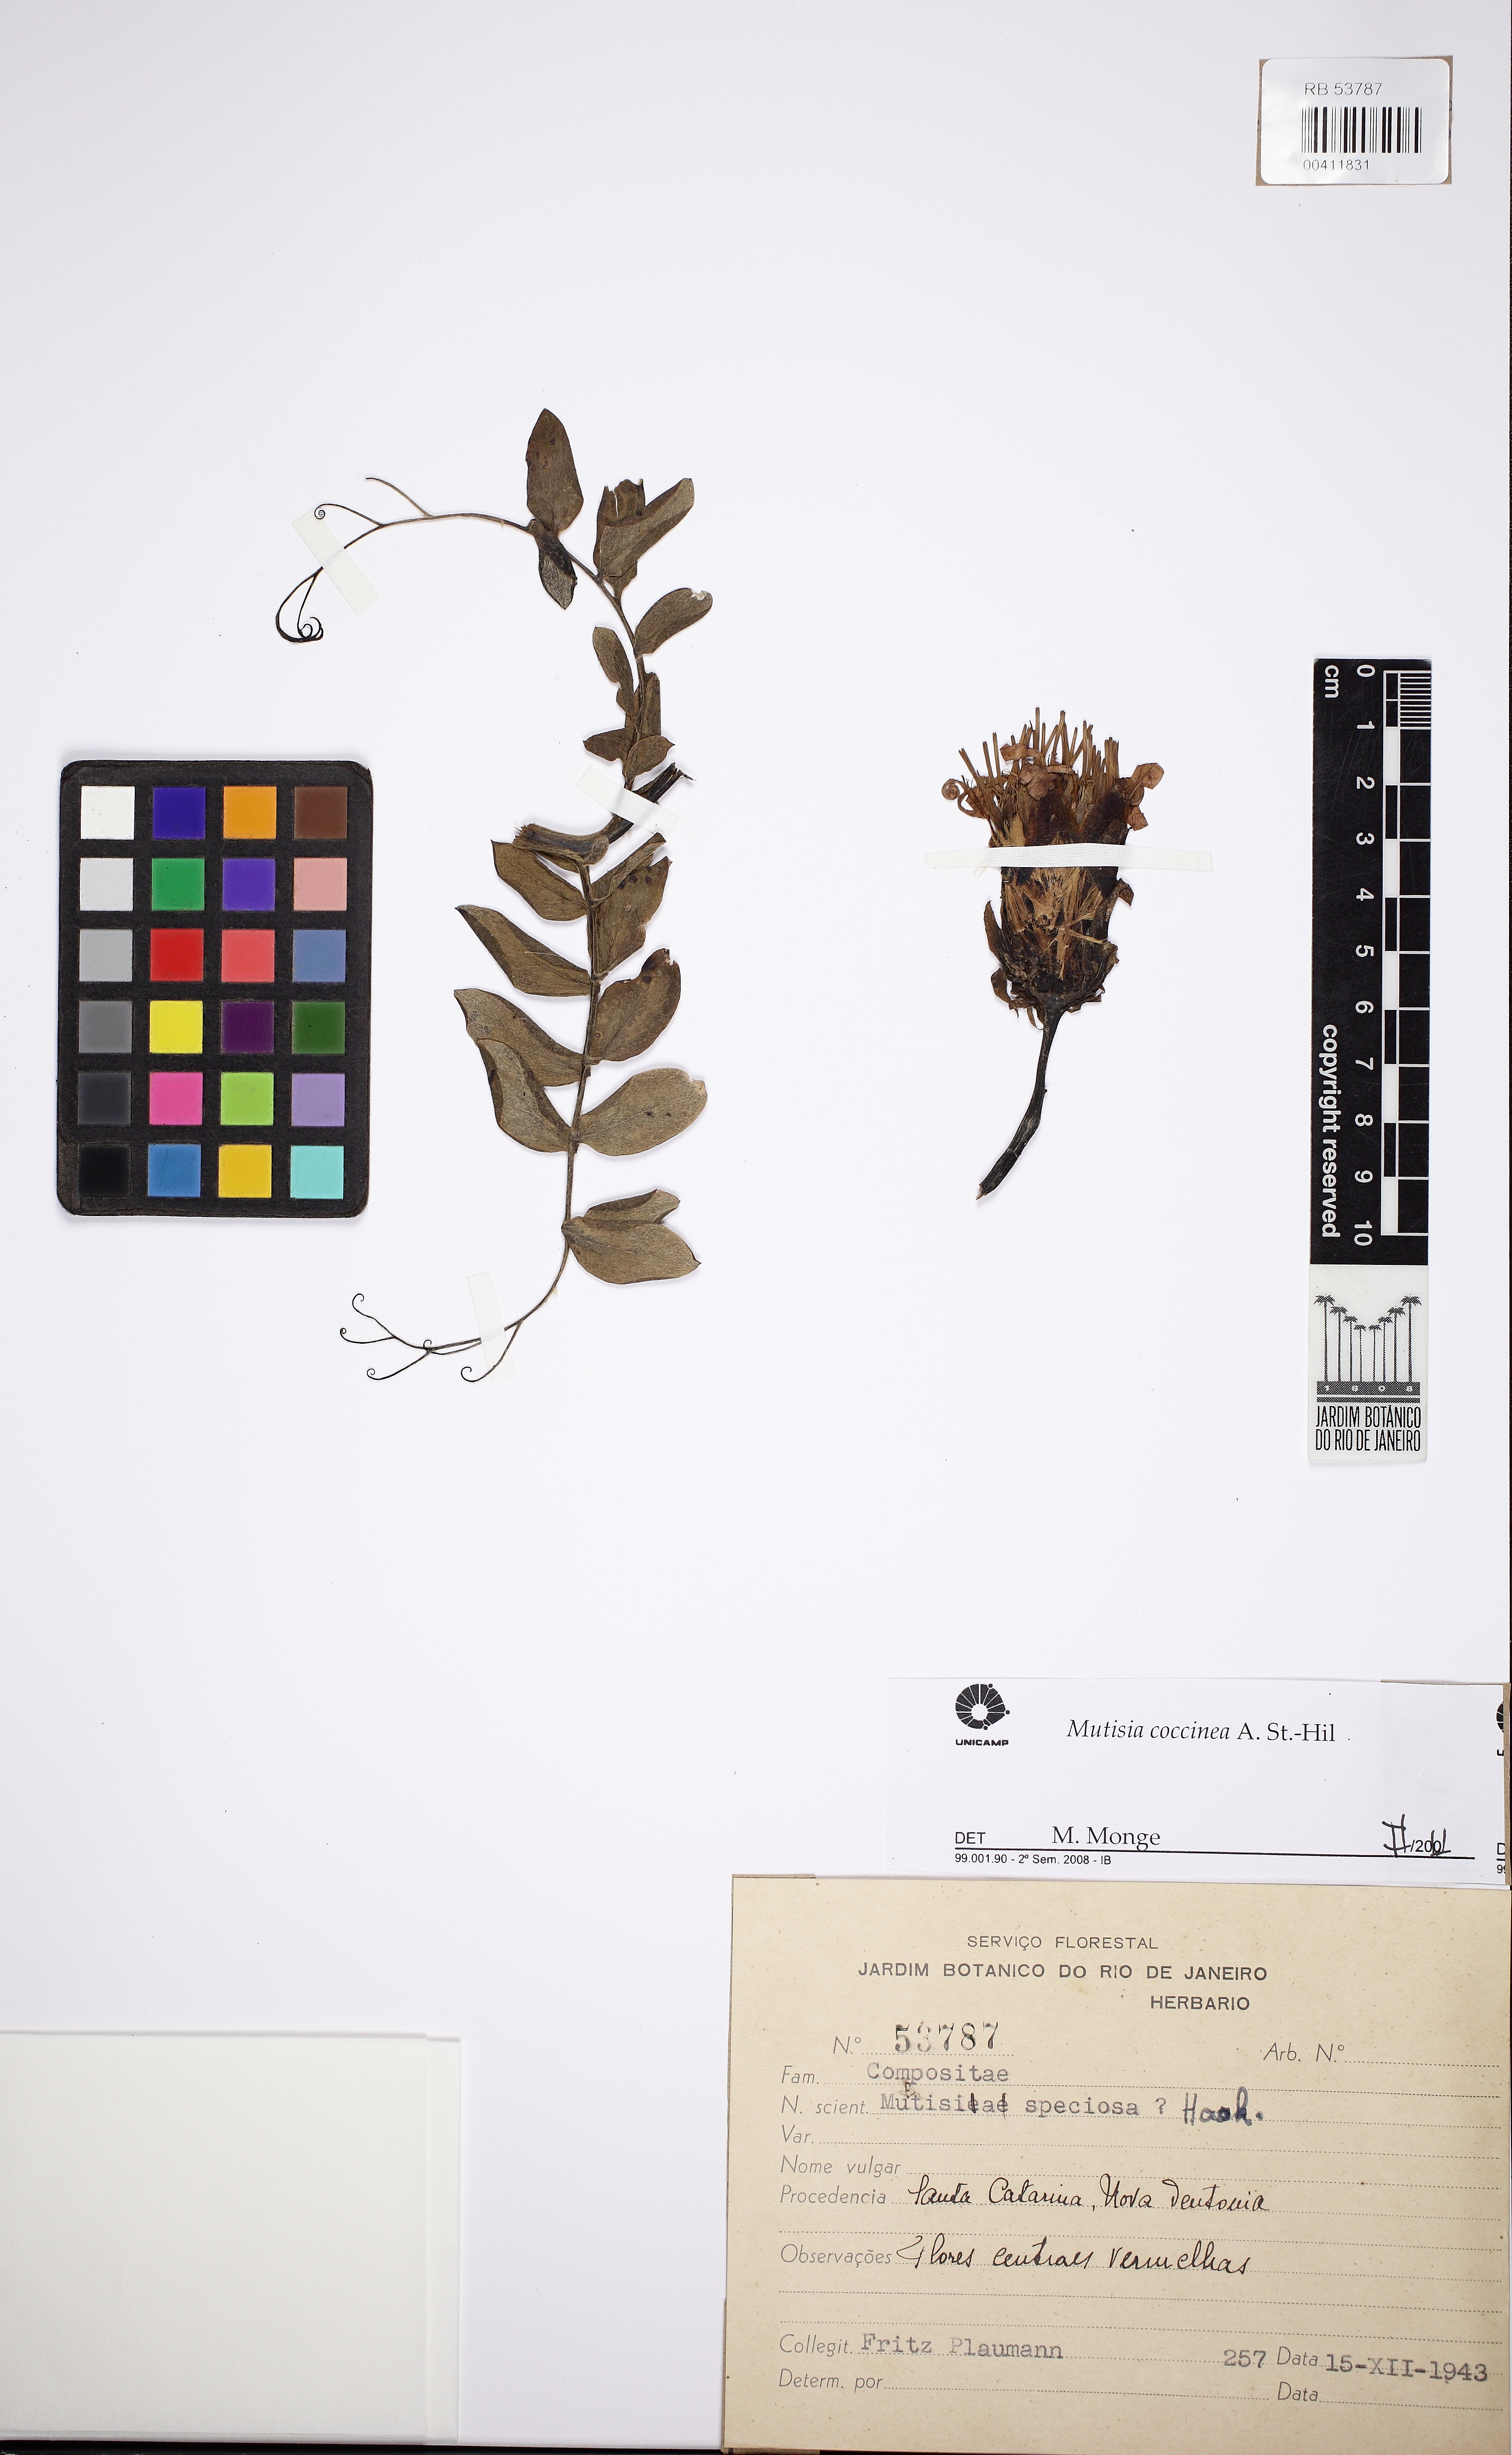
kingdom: Plantae
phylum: Tracheophyta
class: Magnoliopsida
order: Asterales
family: Asteraceae
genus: Mutisia
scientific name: Mutisia campanulata
